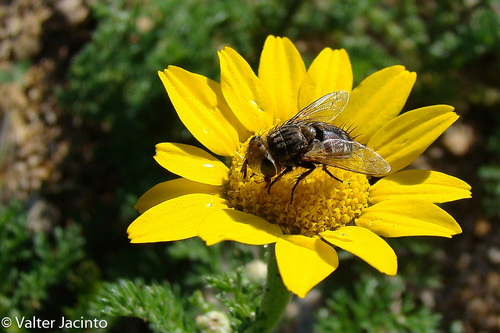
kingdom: Animalia
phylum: Arthropoda
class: Insecta
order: Diptera
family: Tachinidae
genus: Gonia
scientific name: Gonia bimaculata
